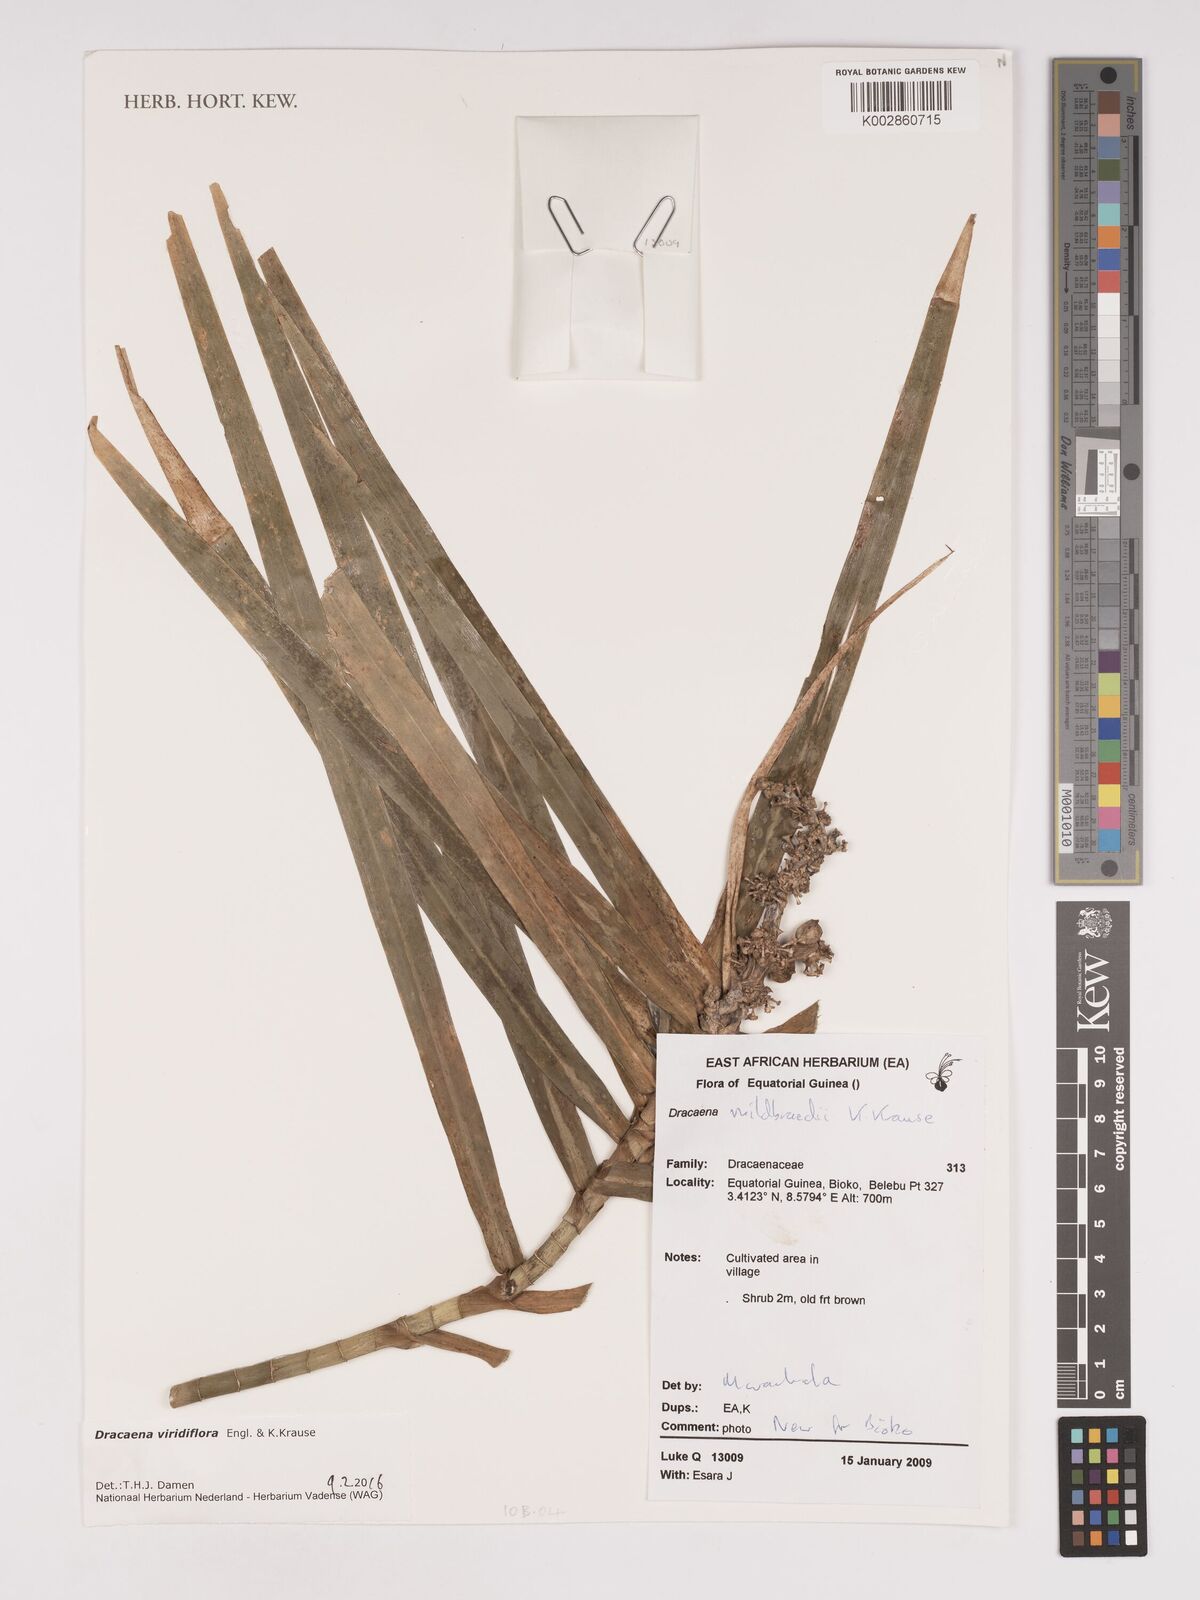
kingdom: Plantae
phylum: Tracheophyta
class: Liliopsida
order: Asparagales
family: Asparagaceae
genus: Dracaena
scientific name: Dracaena viridiflora
